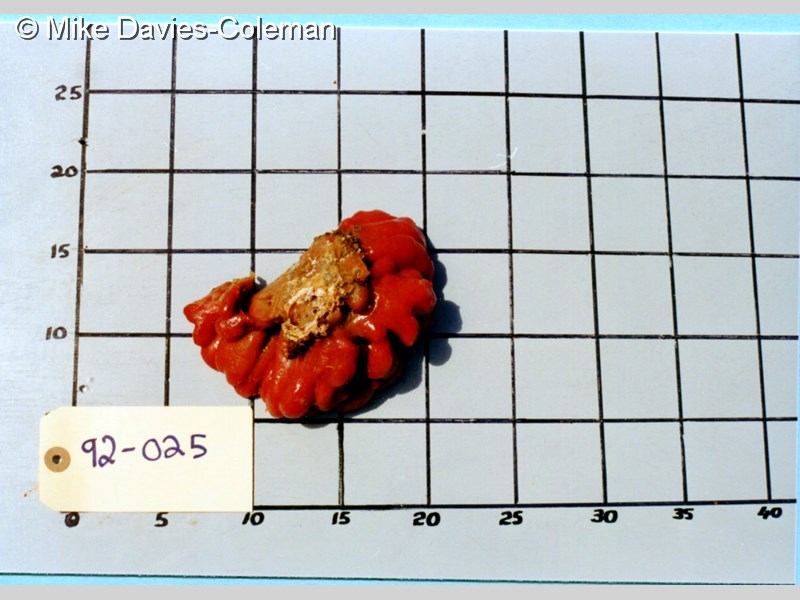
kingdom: Animalia
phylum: Chordata
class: Ascidiacea
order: Aplousobranchia
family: Pseudodistomidae
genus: Pseudodistoma
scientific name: Pseudodistoma
